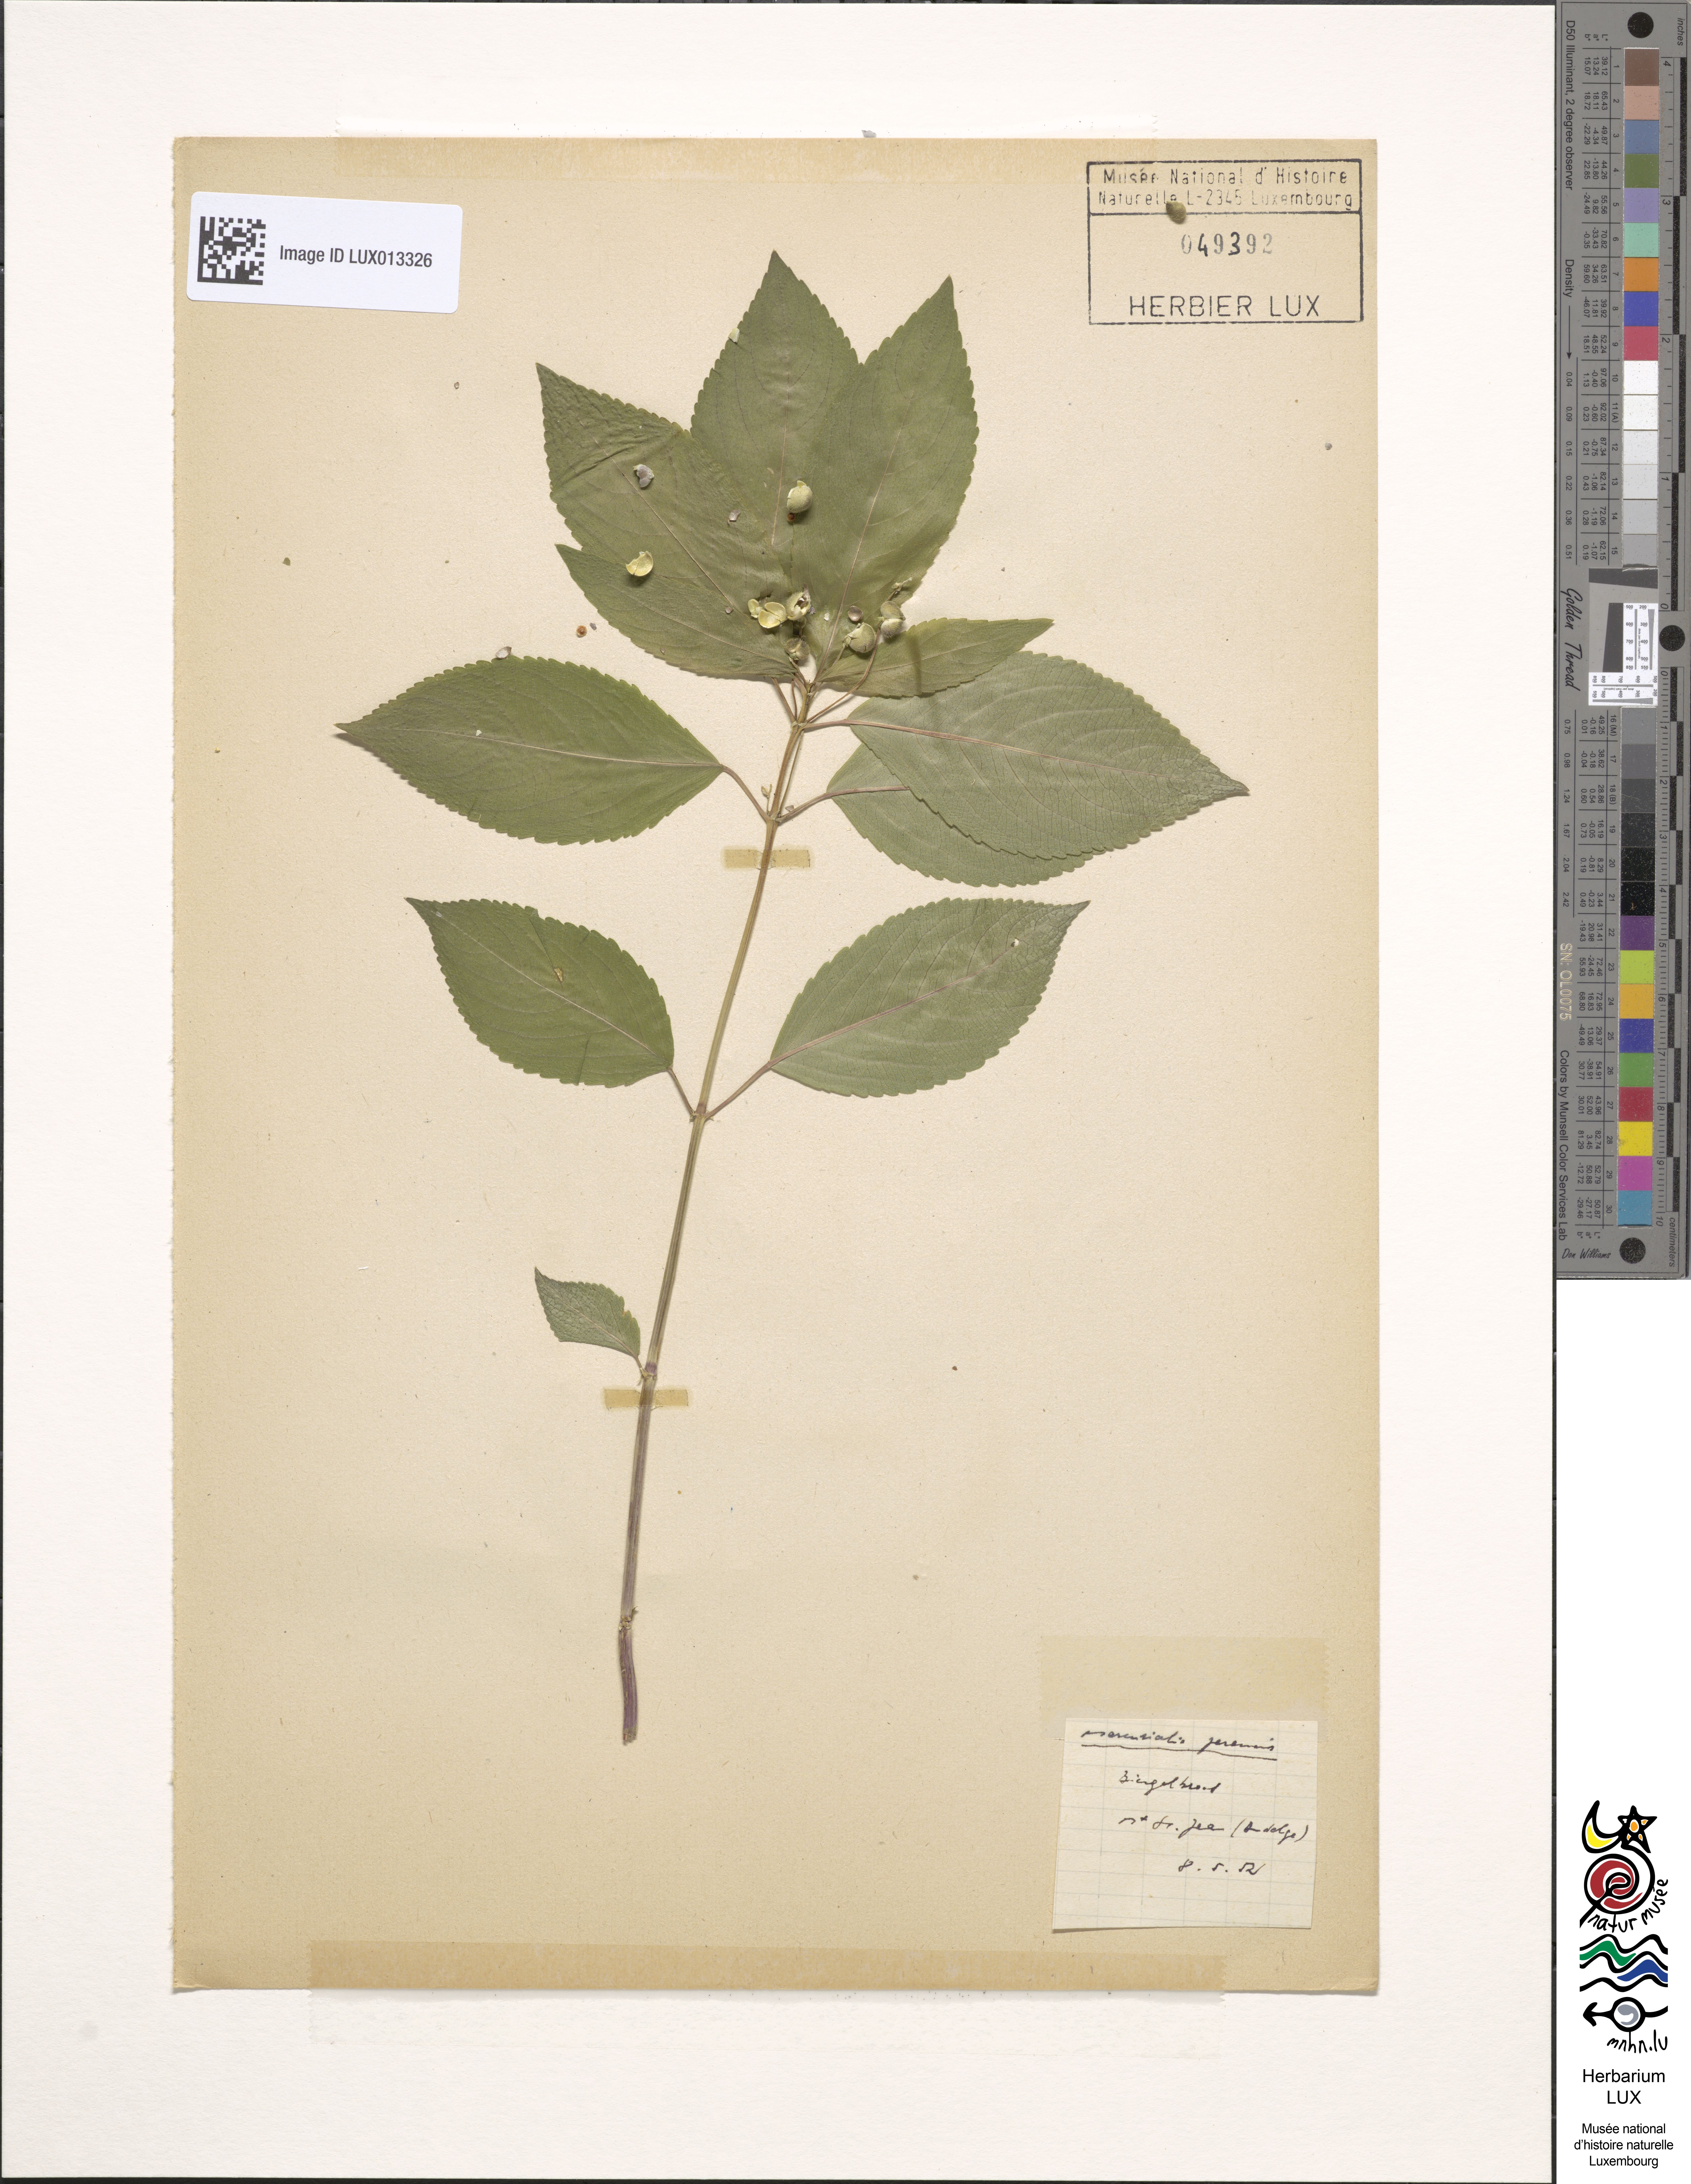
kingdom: Plantae
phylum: Tracheophyta
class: Magnoliopsida
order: Malpighiales
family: Euphorbiaceae
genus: Mercurialis
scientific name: Mercurialis perennis
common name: Dog mercury
